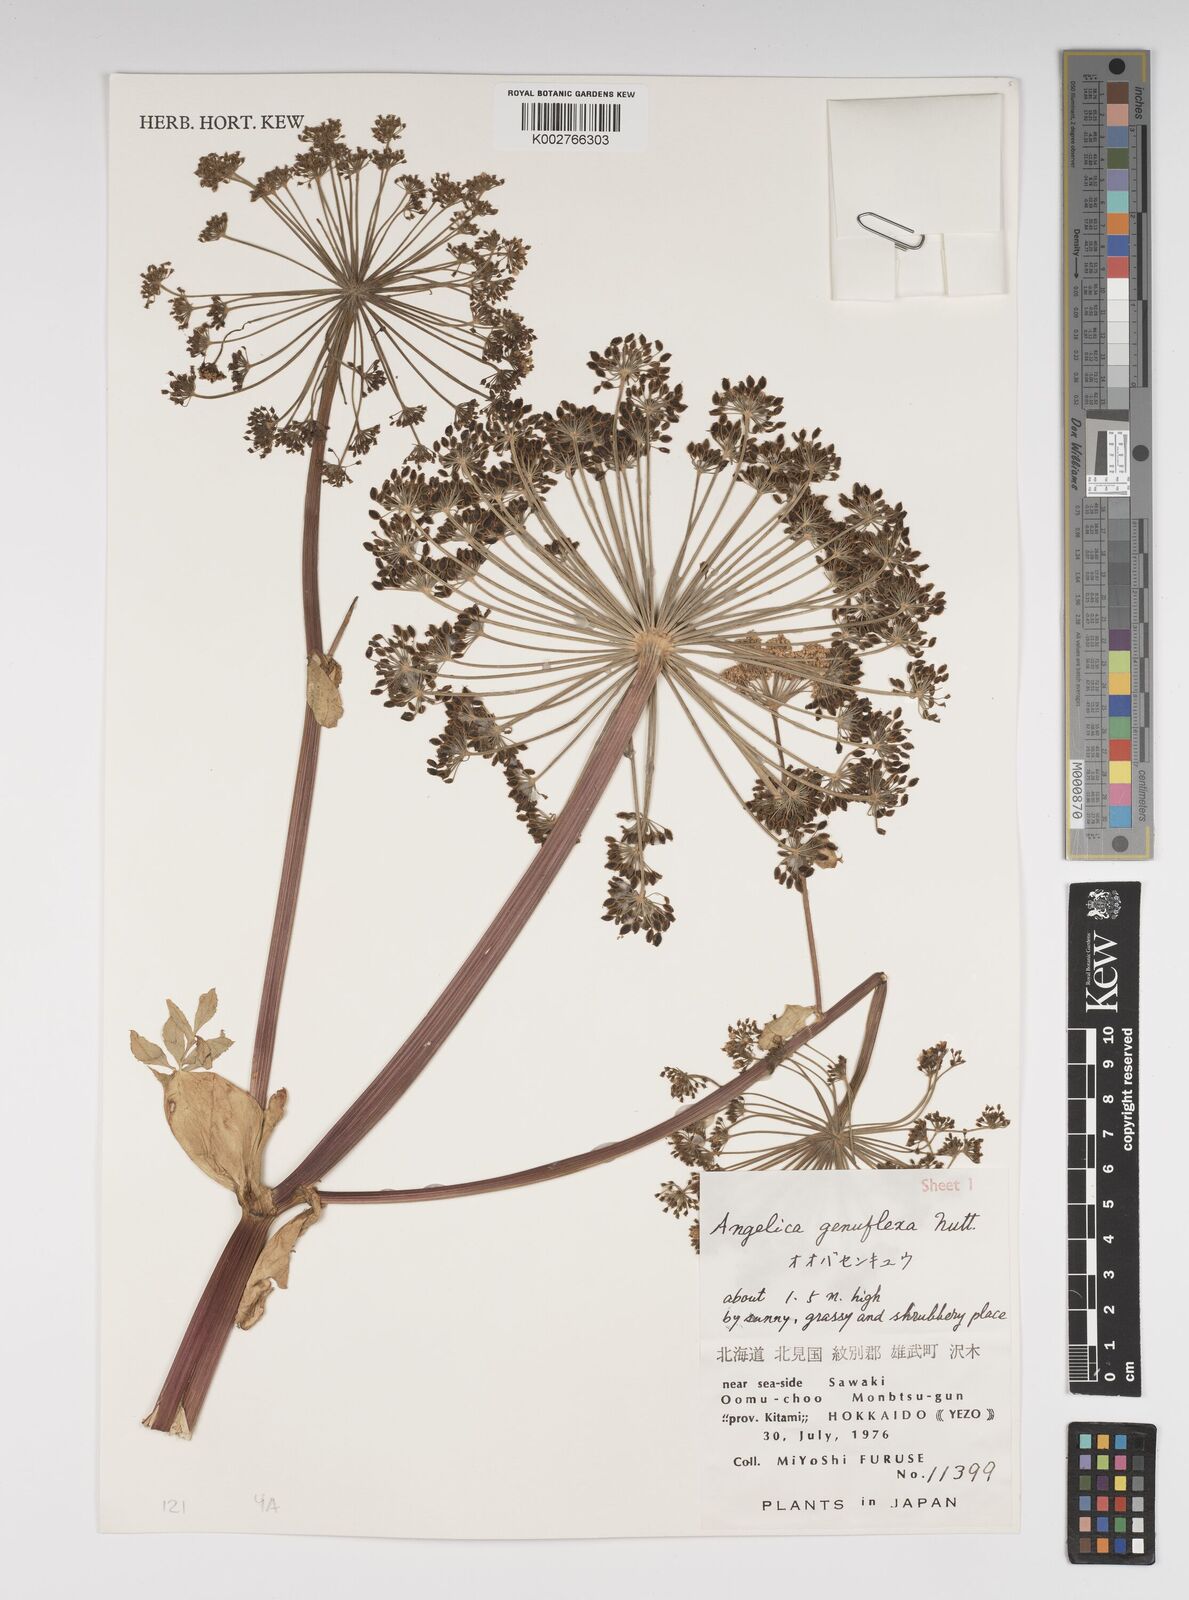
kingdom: Plantae
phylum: Tracheophyta
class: Magnoliopsida
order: Apiales
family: Apiaceae
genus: Angelica
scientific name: Angelica genuflexa
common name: Kneeling angelica
